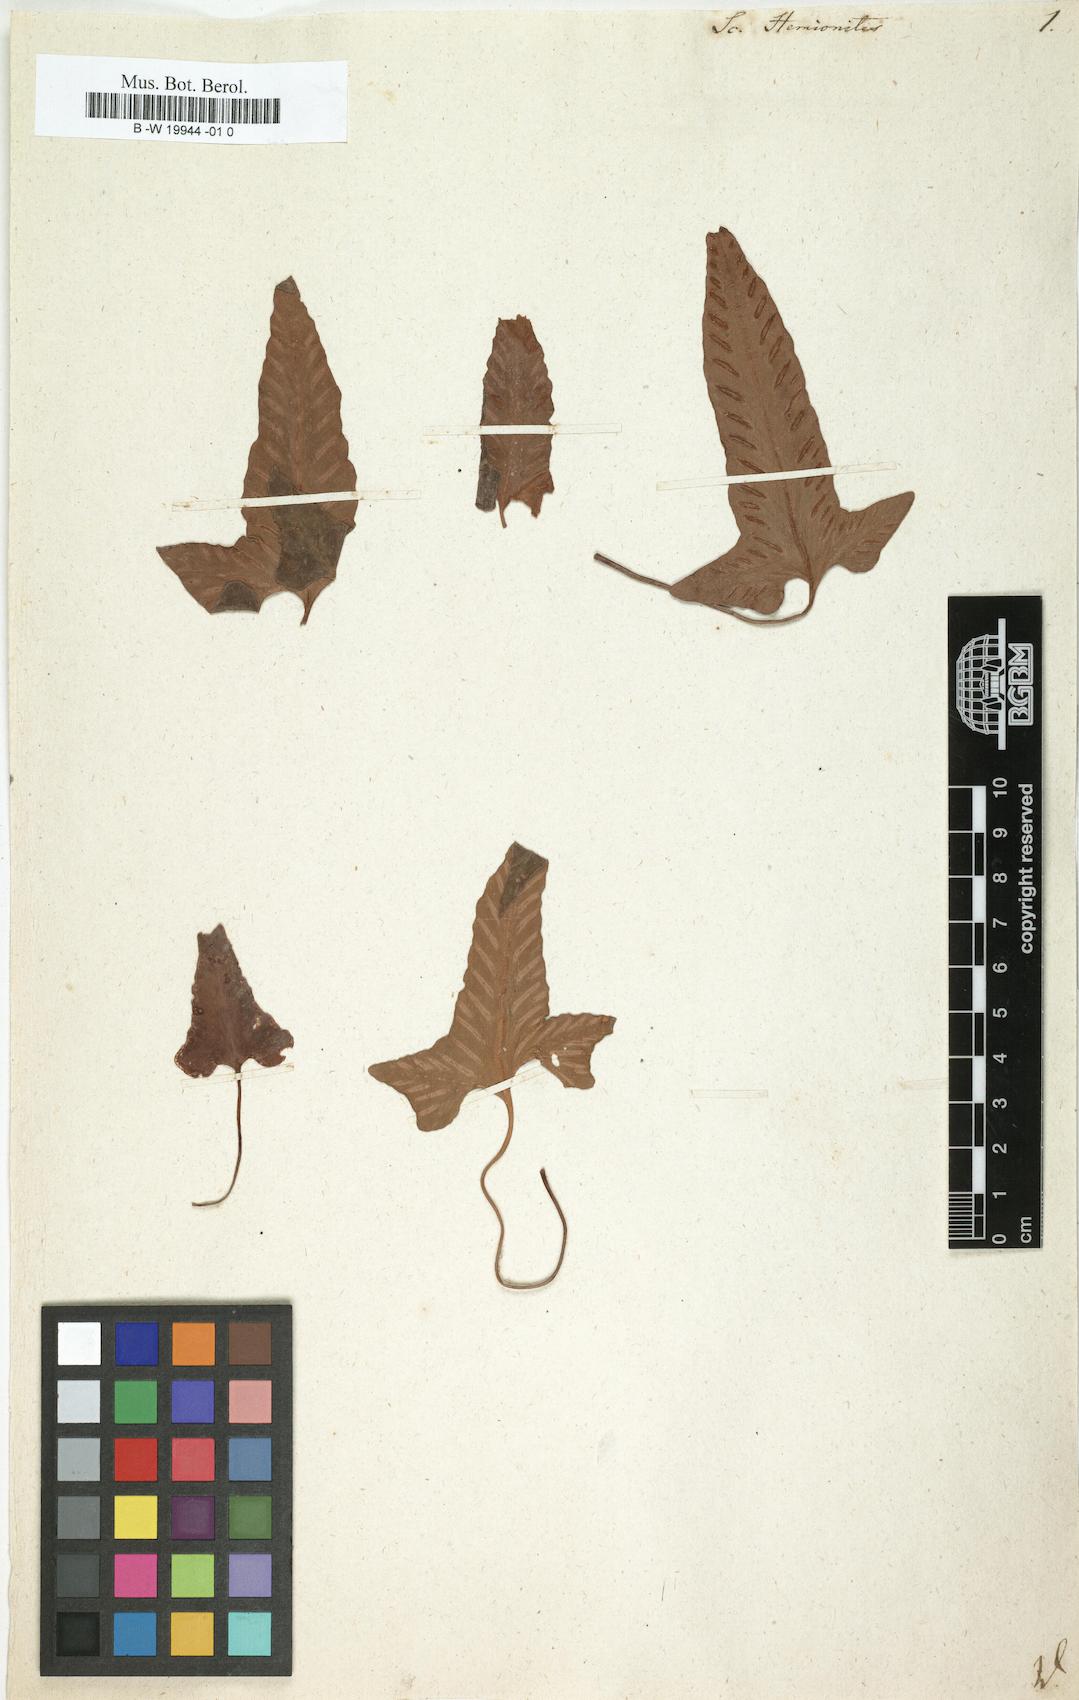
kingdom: Plantae
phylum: Tracheophyta
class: Polypodiopsida
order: Polypodiales
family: Aspleniaceae
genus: Asplenium
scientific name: Asplenium sagittatum
